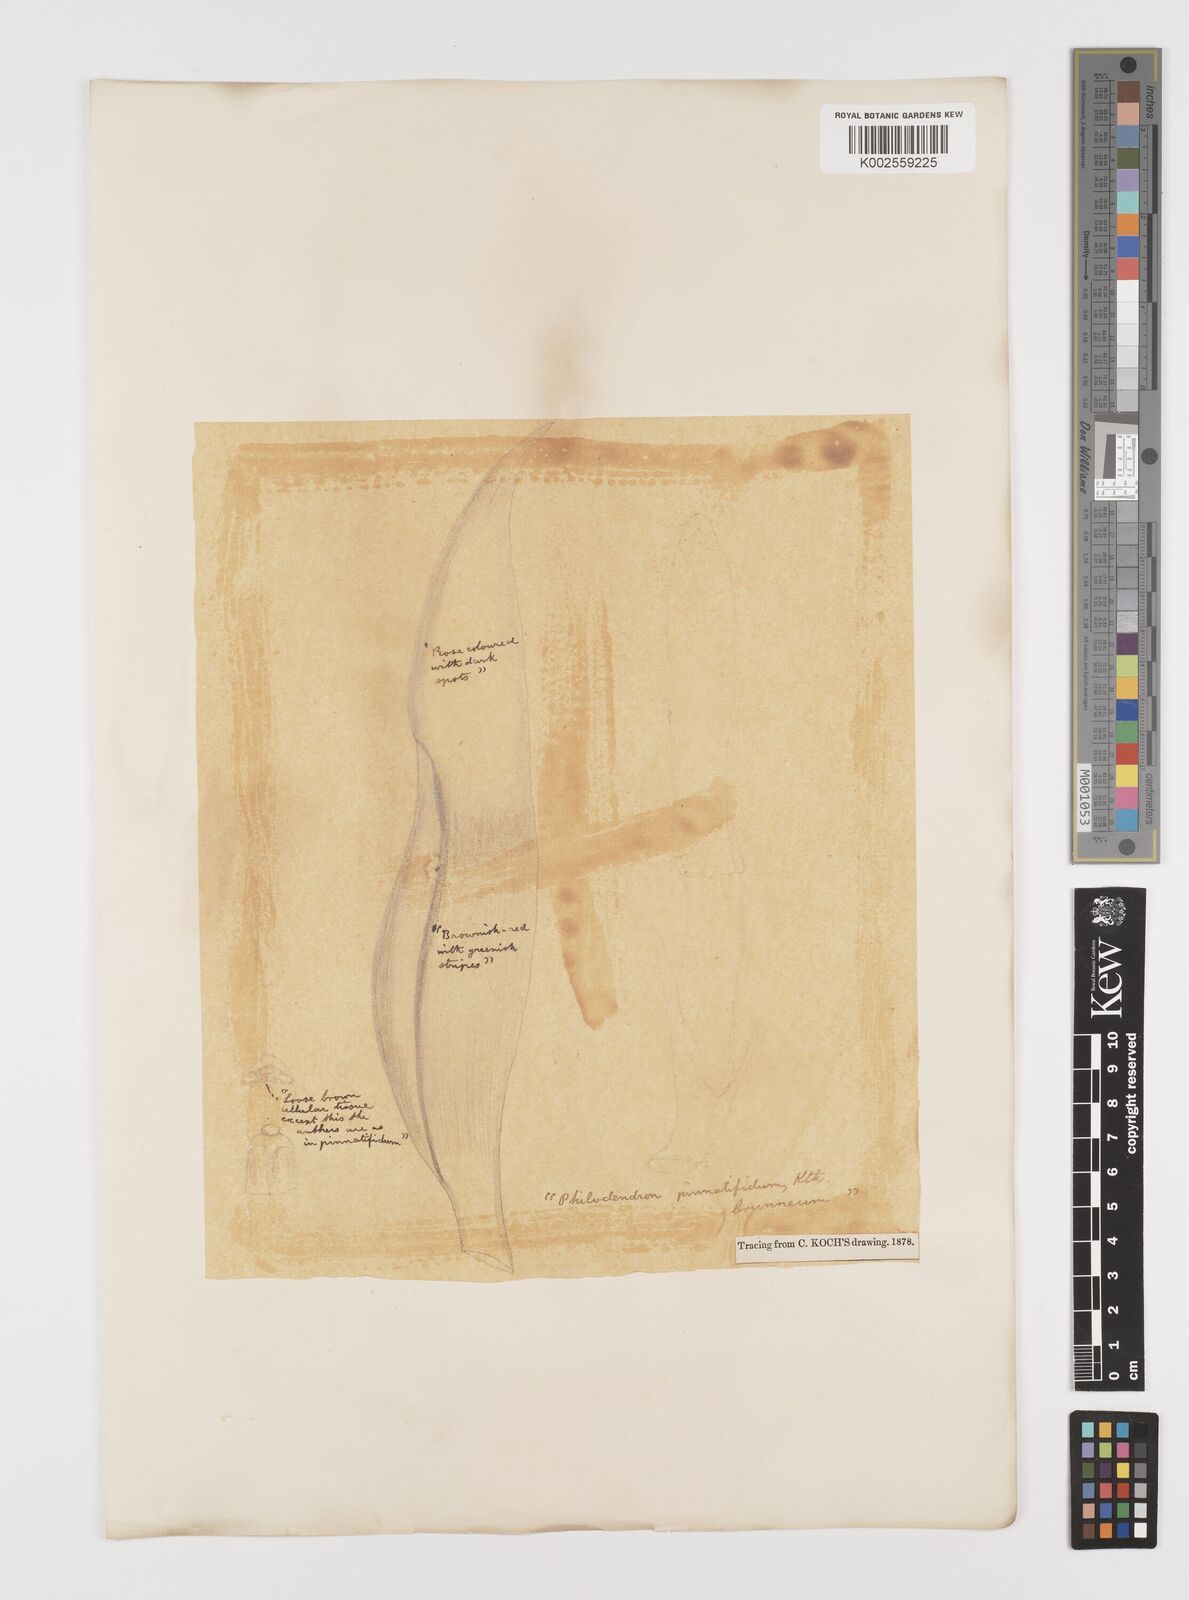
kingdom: Plantae
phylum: Tracheophyta
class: Liliopsida
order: Alismatales
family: Araceae
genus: Philodendron
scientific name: Philodendron pinnatifidum
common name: Comb-leaf philodendron
